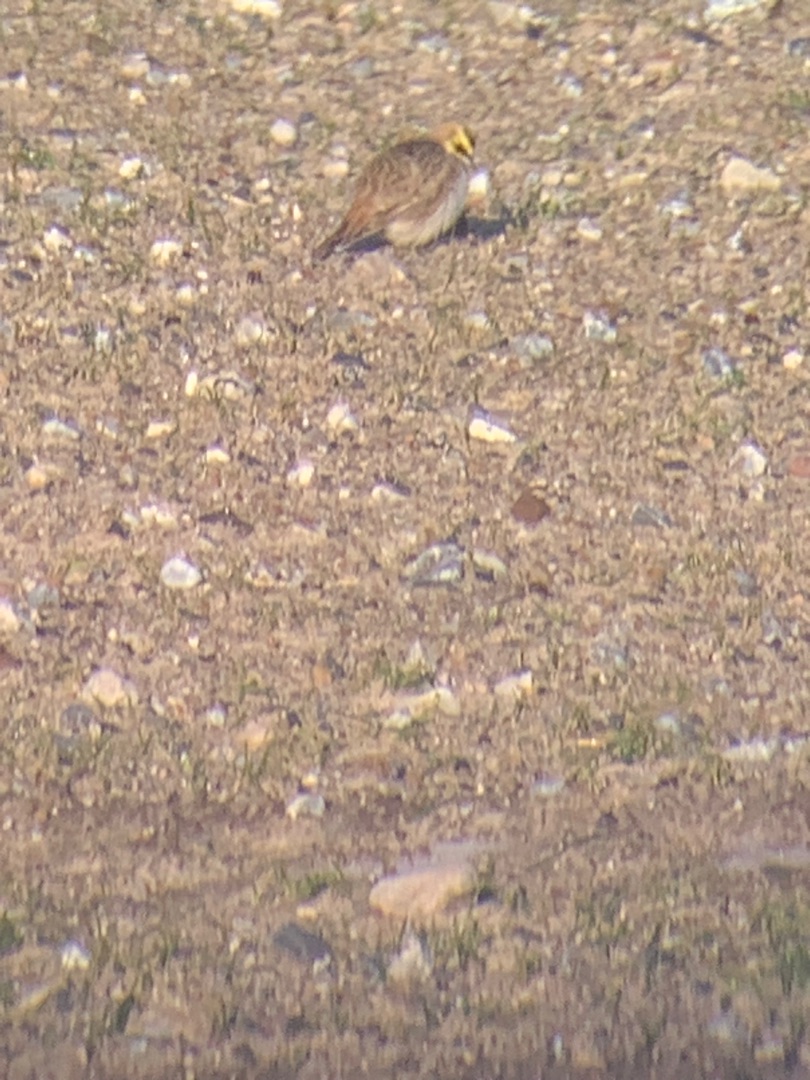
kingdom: Animalia
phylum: Chordata
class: Aves
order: Passeriformes
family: Alaudidae
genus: Eremophila
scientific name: Eremophila alpestris
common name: Bjerglærke
